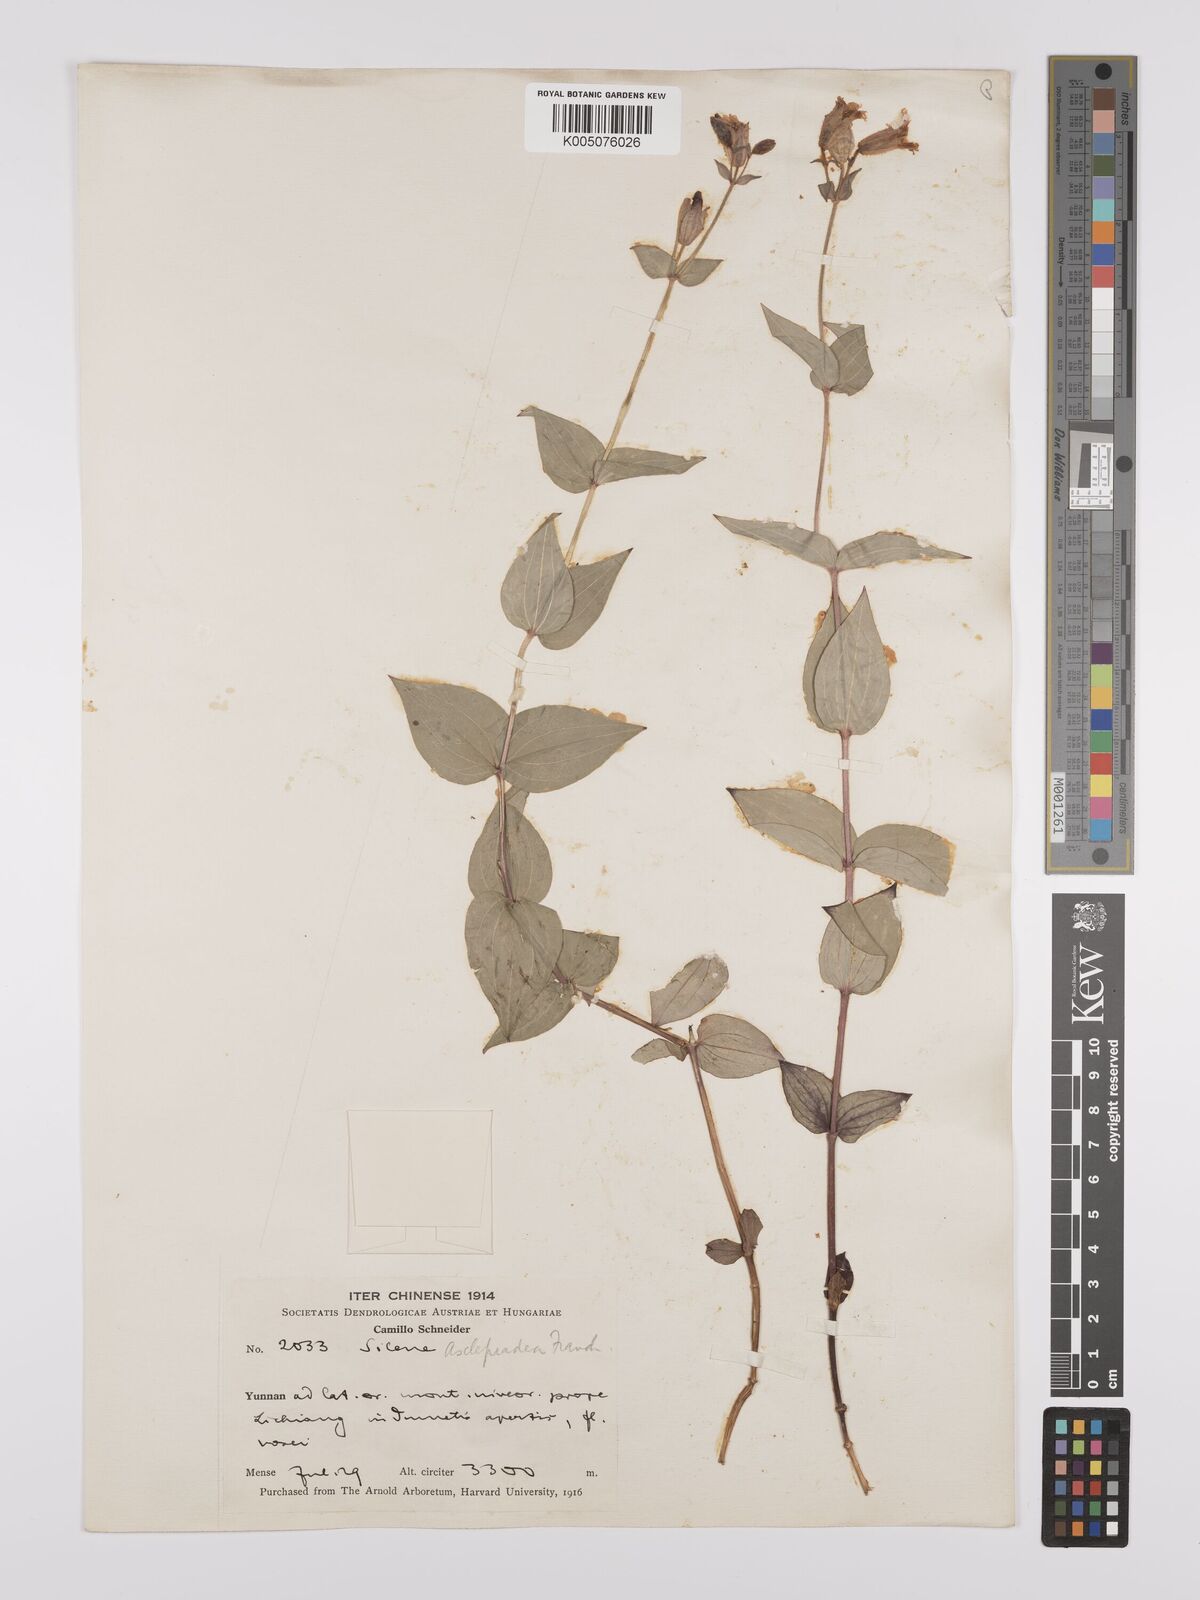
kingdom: Plantae
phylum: Tracheophyta
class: Magnoliopsida
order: Caryophyllales
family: Caryophyllaceae
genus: Silene
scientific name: Silene asclepiadea
